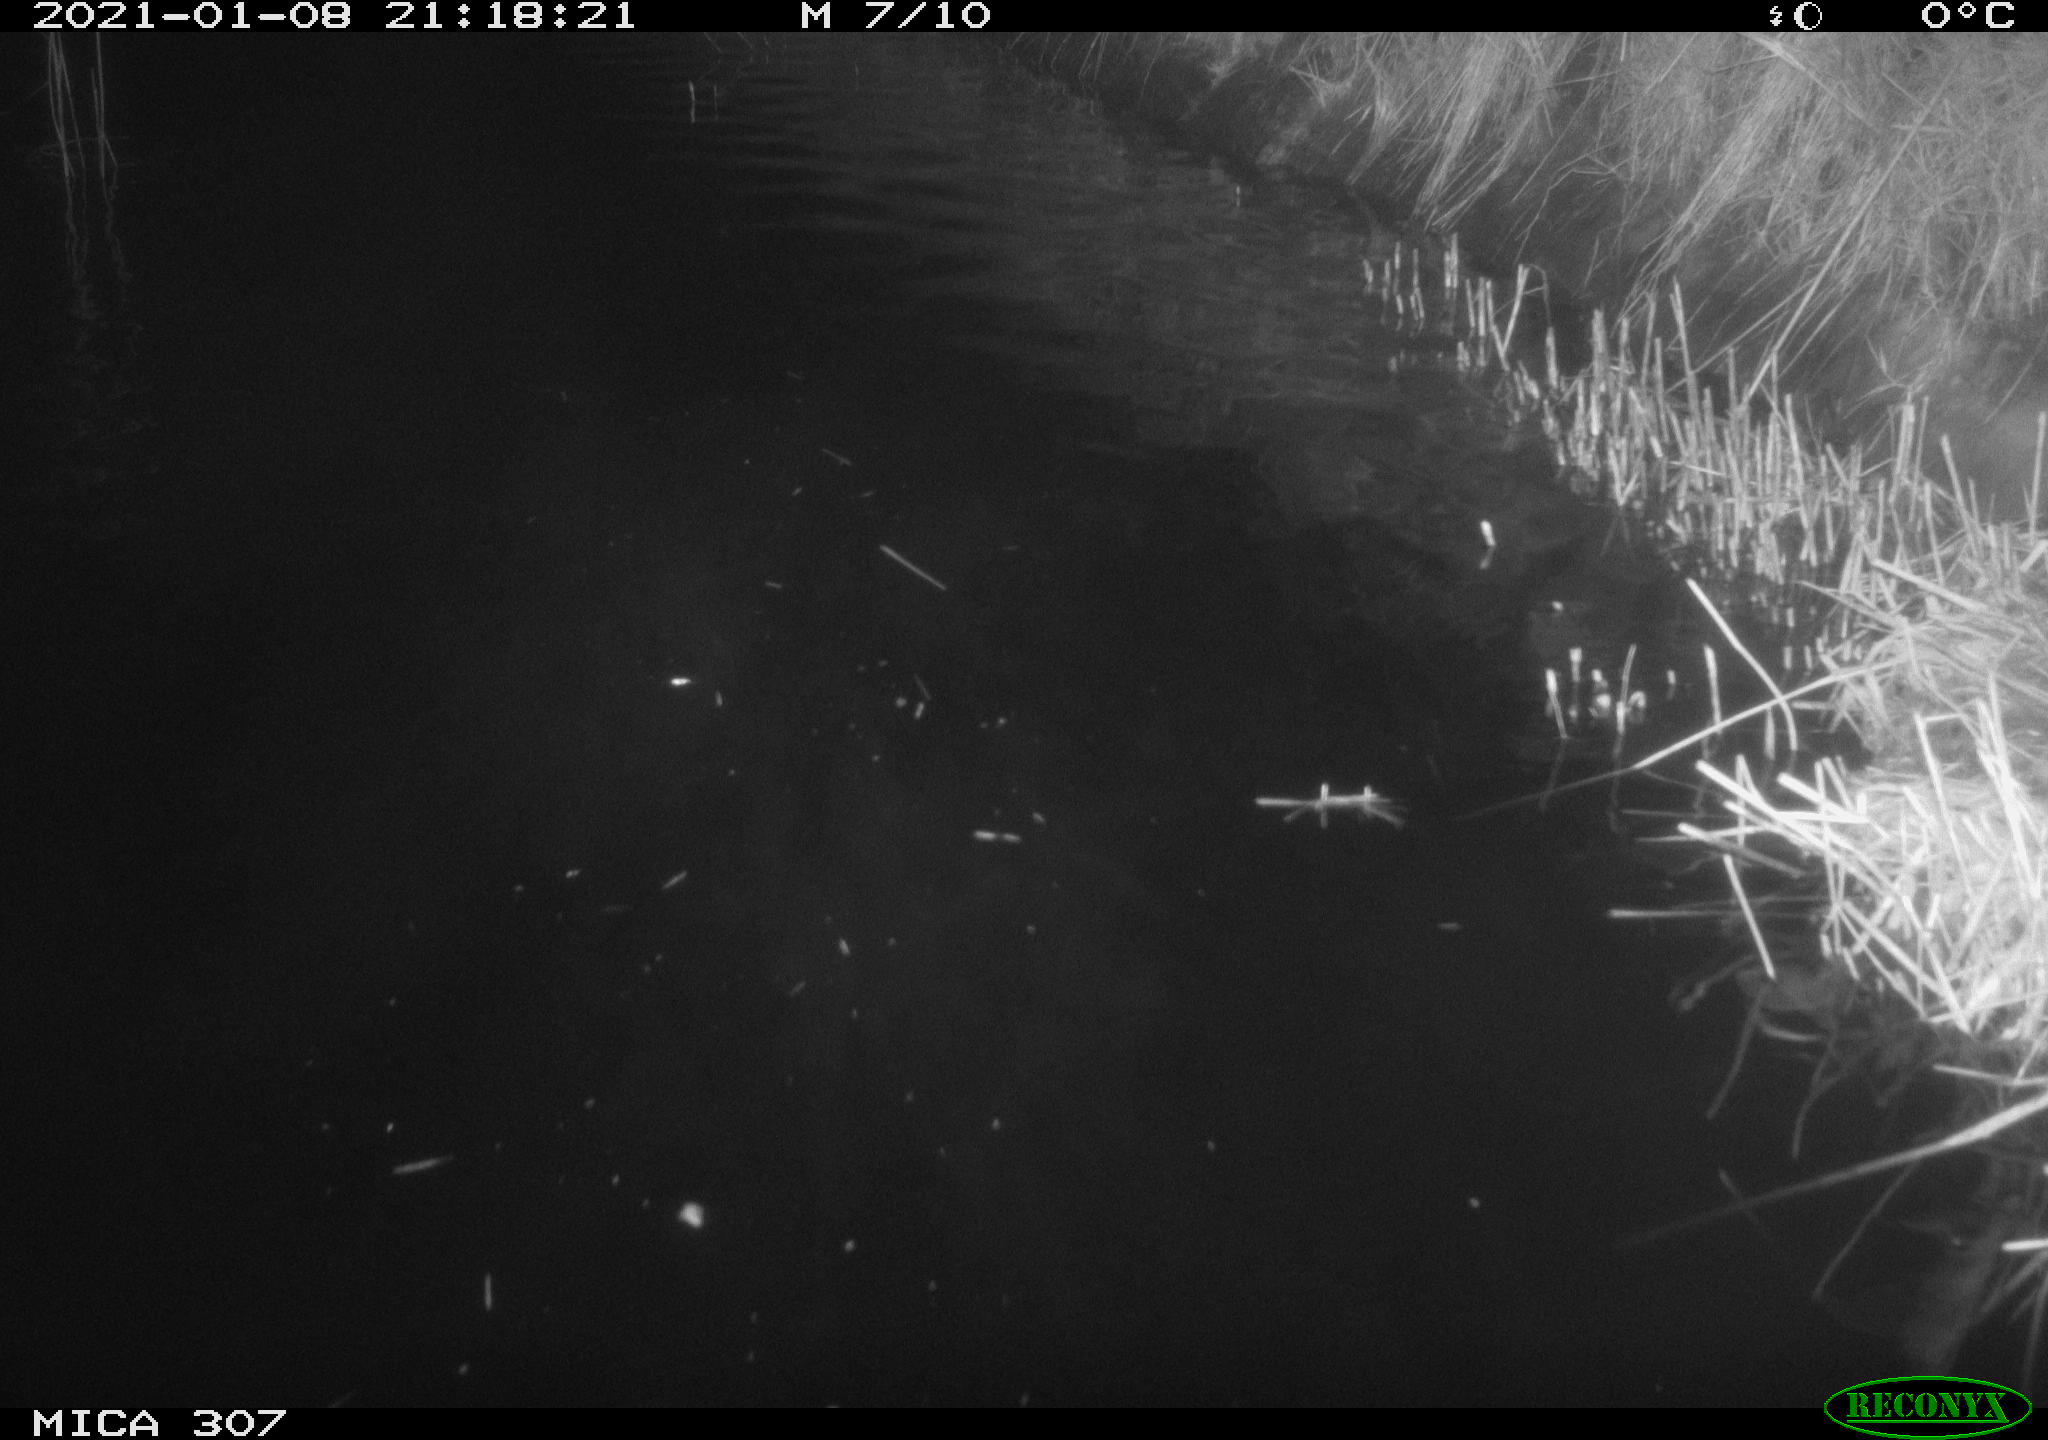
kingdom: Animalia
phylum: Chordata
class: Mammalia
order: Rodentia
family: Cricetidae
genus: Ondatra
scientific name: Ondatra zibethicus
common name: Muskrat
